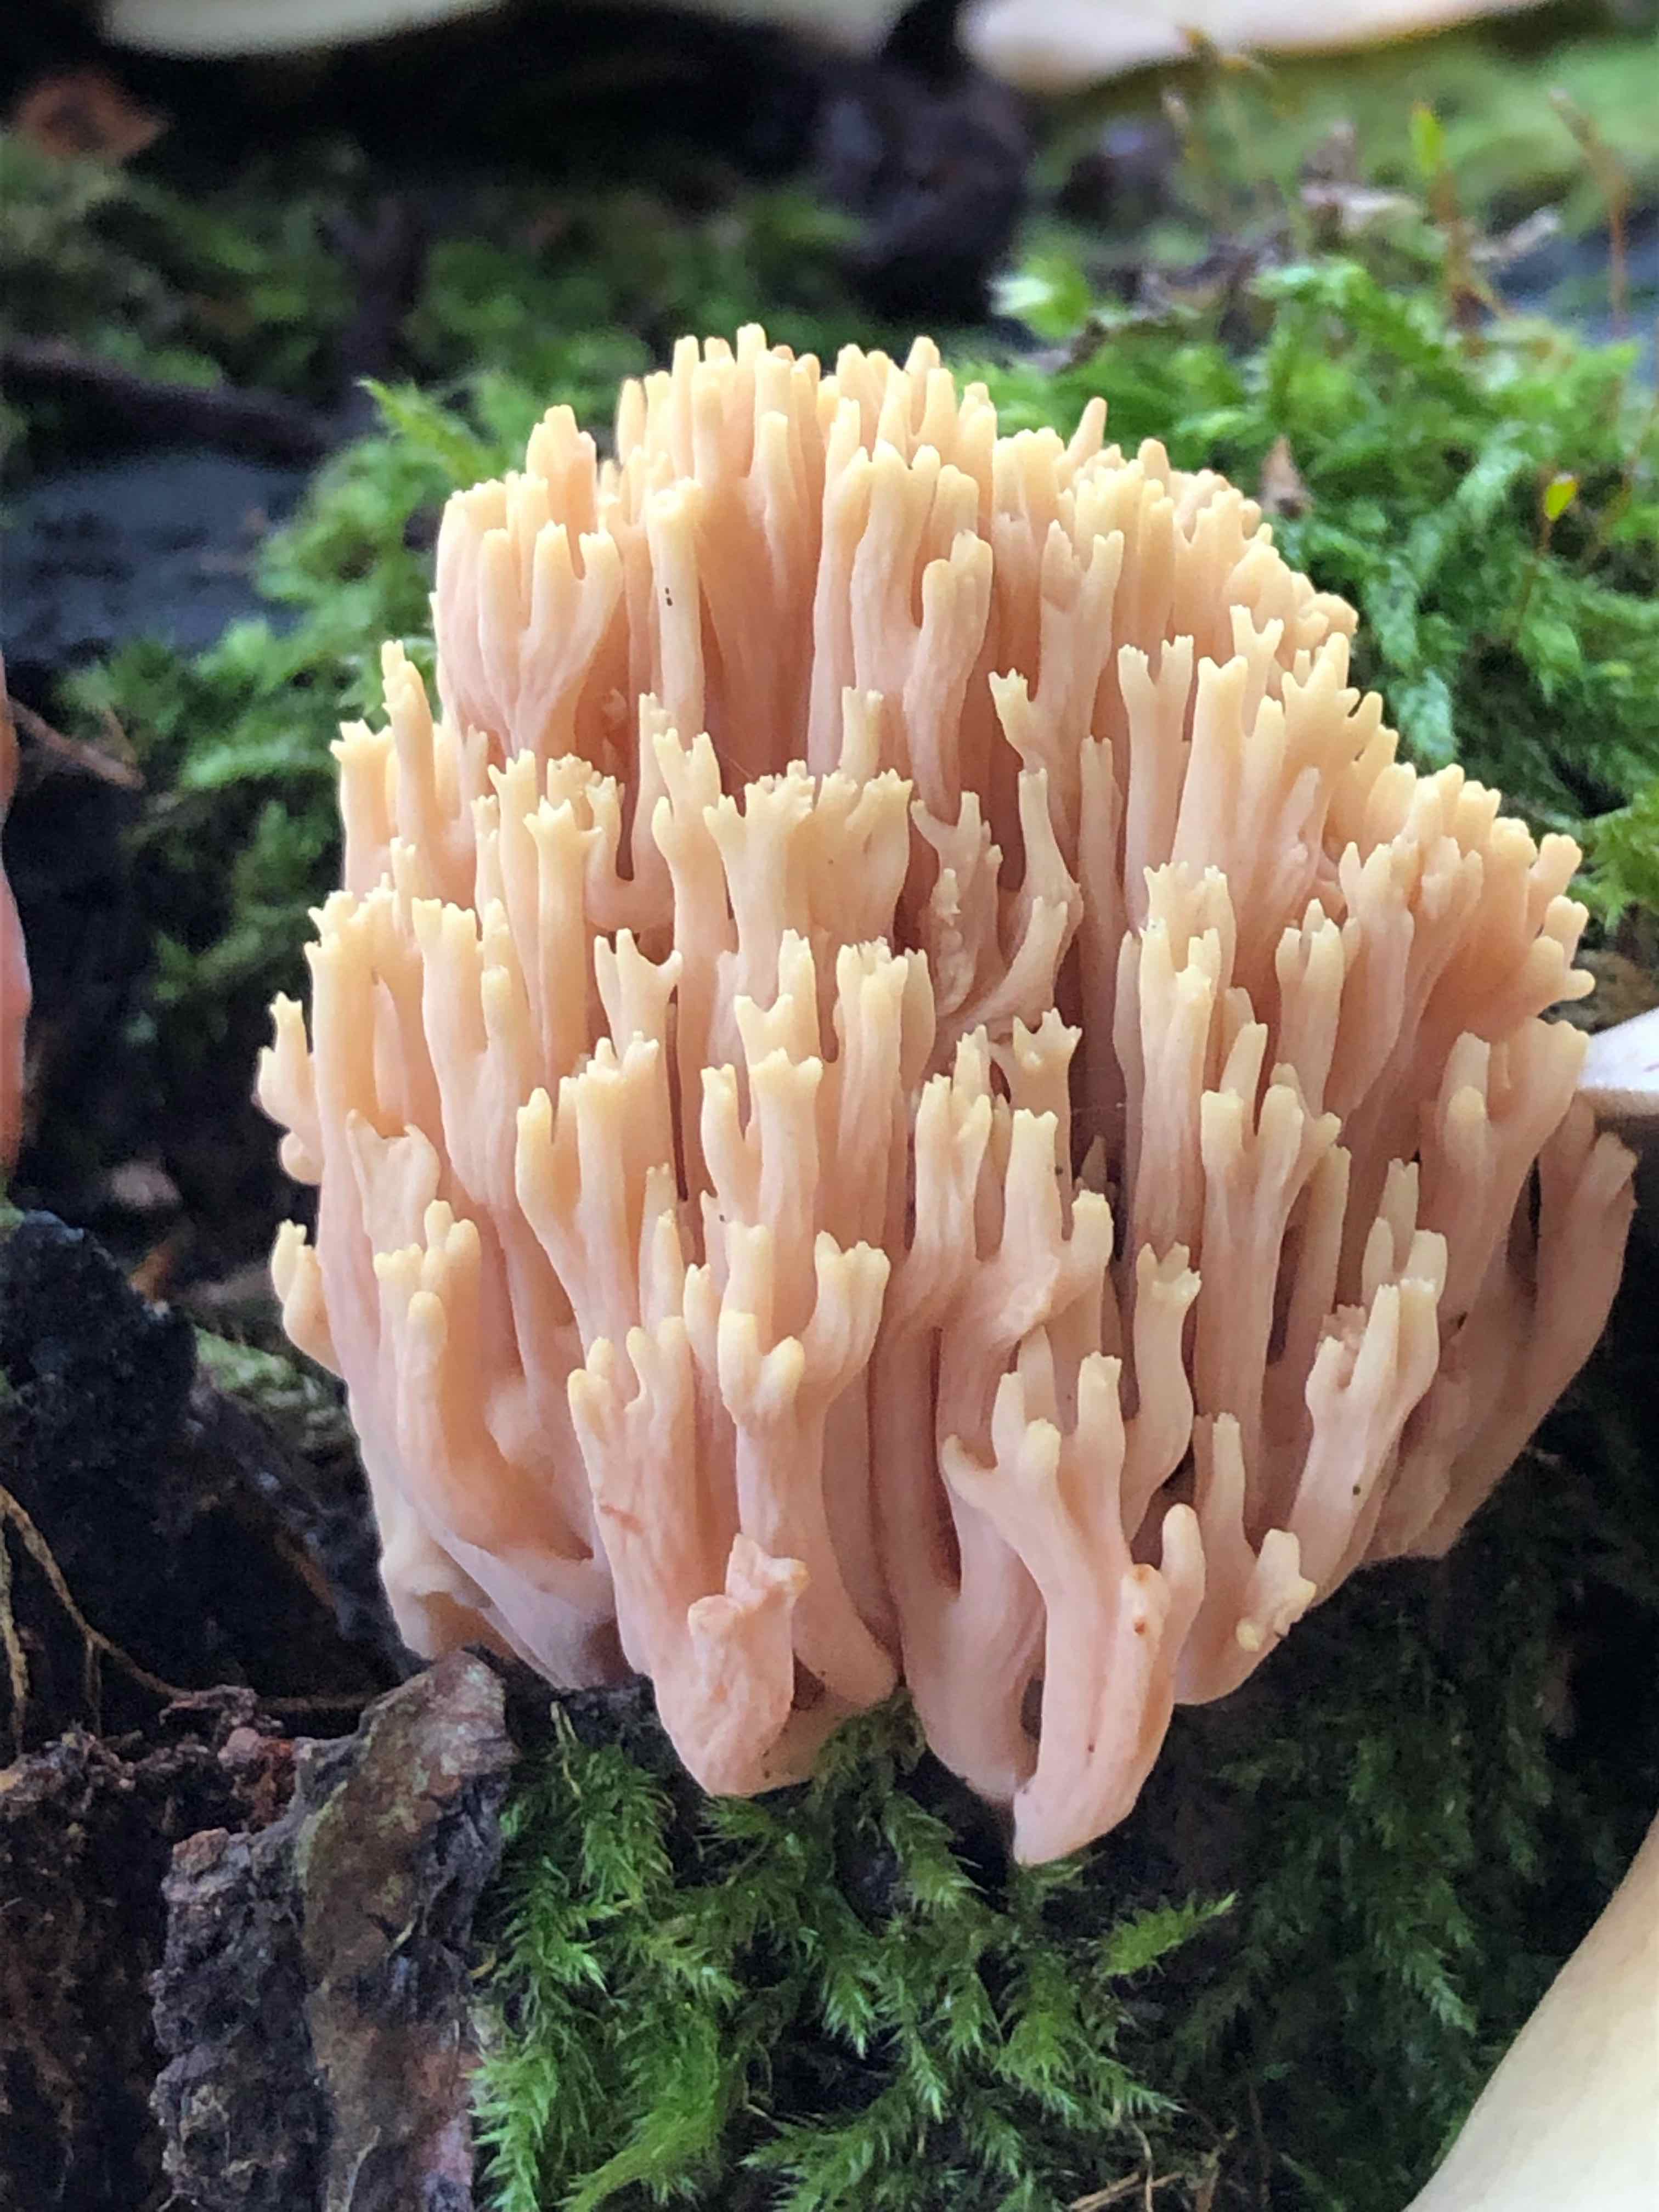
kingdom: Fungi
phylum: Basidiomycota
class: Agaricomycetes
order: Gomphales
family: Gomphaceae
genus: Ramaria
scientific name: Ramaria stricta
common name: rank koralsvamp
